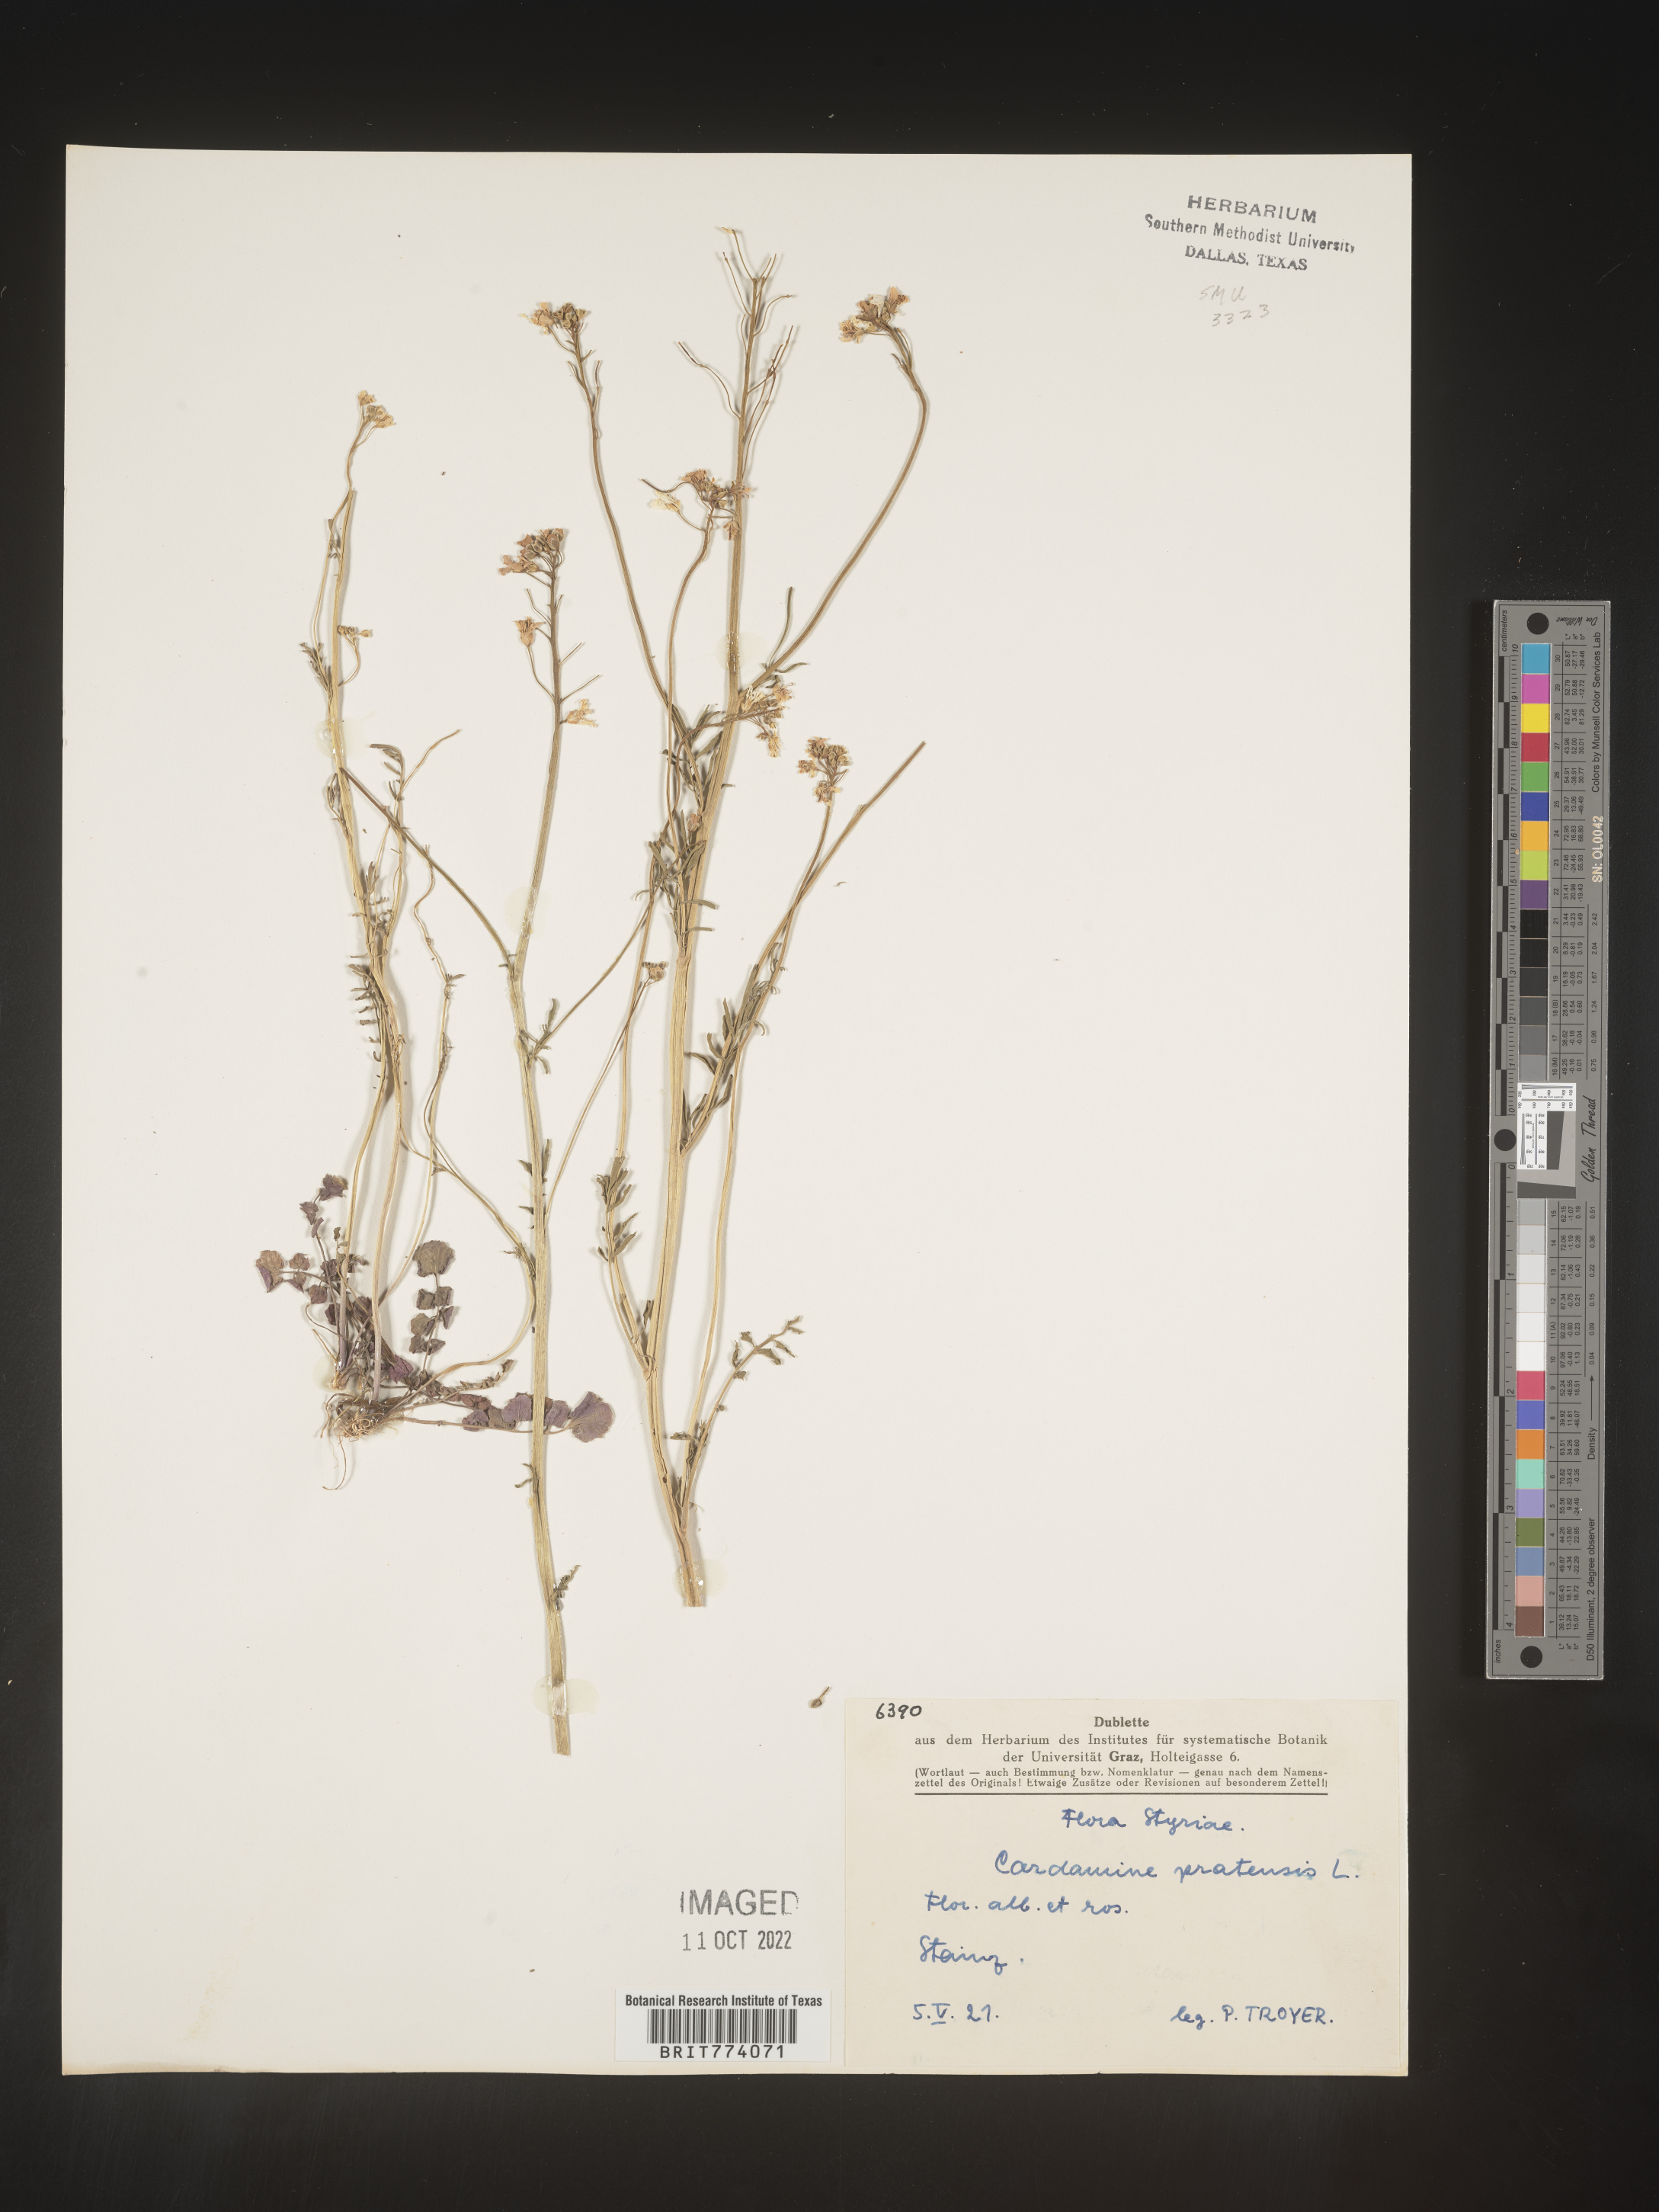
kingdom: Plantae
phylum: Tracheophyta
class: Magnoliopsida
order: Brassicales
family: Brassicaceae
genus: Cardamine
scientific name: Cardamine pratensis
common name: Cuckoo flower
